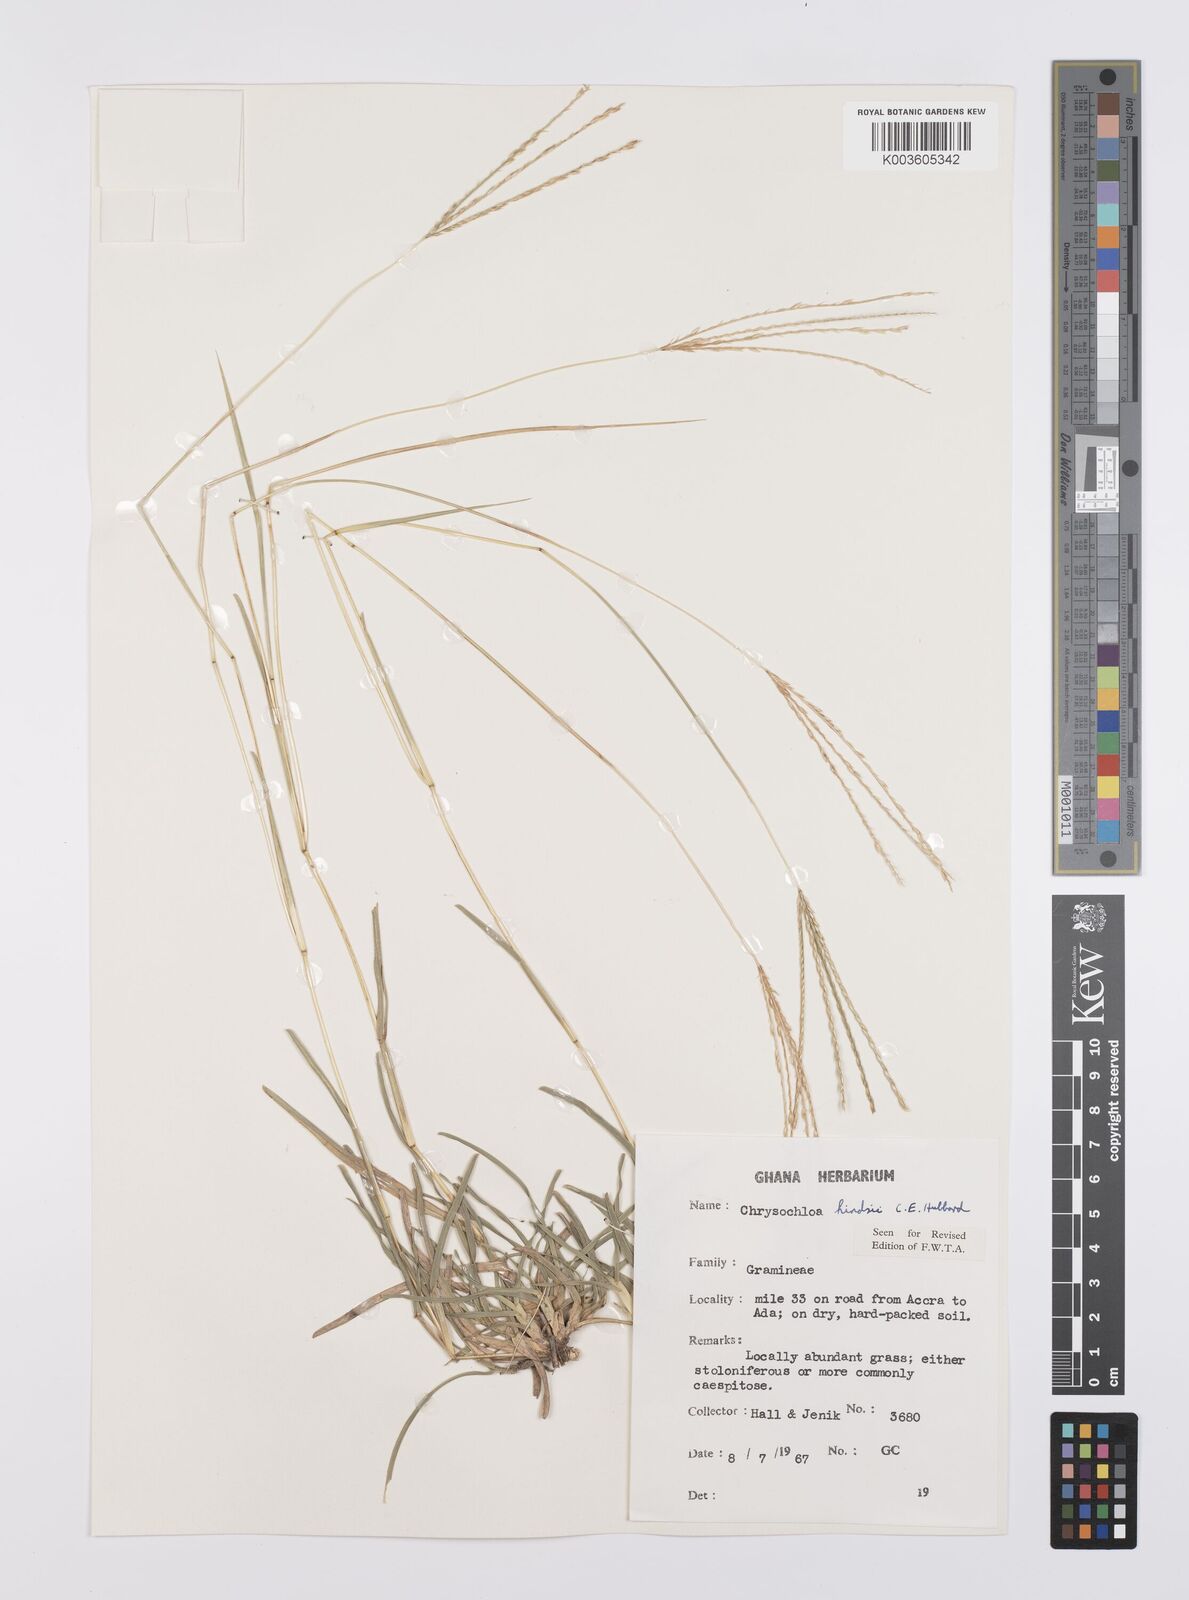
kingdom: Plantae
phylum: Tracheophyta
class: Liliopsida
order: Poales
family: Poaceae
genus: Chrysochloa
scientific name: Chrysochloa hindsii
